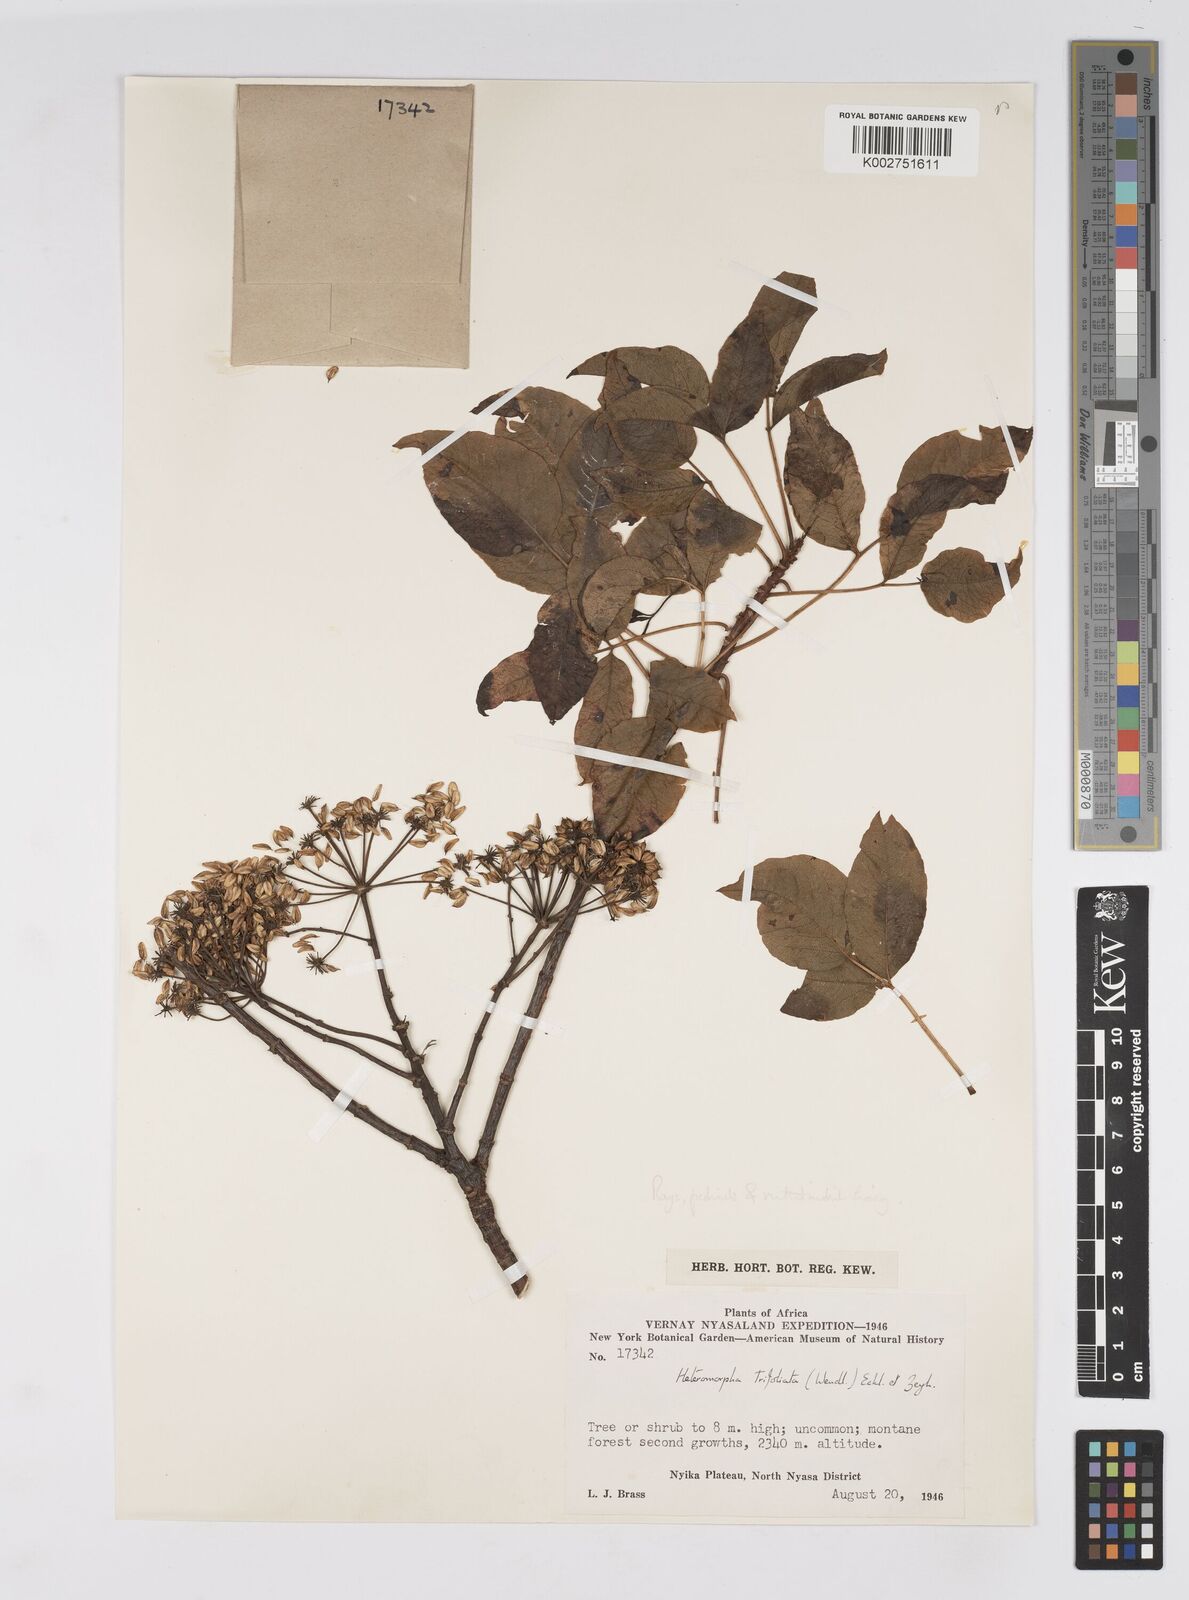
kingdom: Plantae
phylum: Tracheophyta
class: Magnoliopsida
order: Apiales
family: Apiaceae
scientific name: Apiaceae
